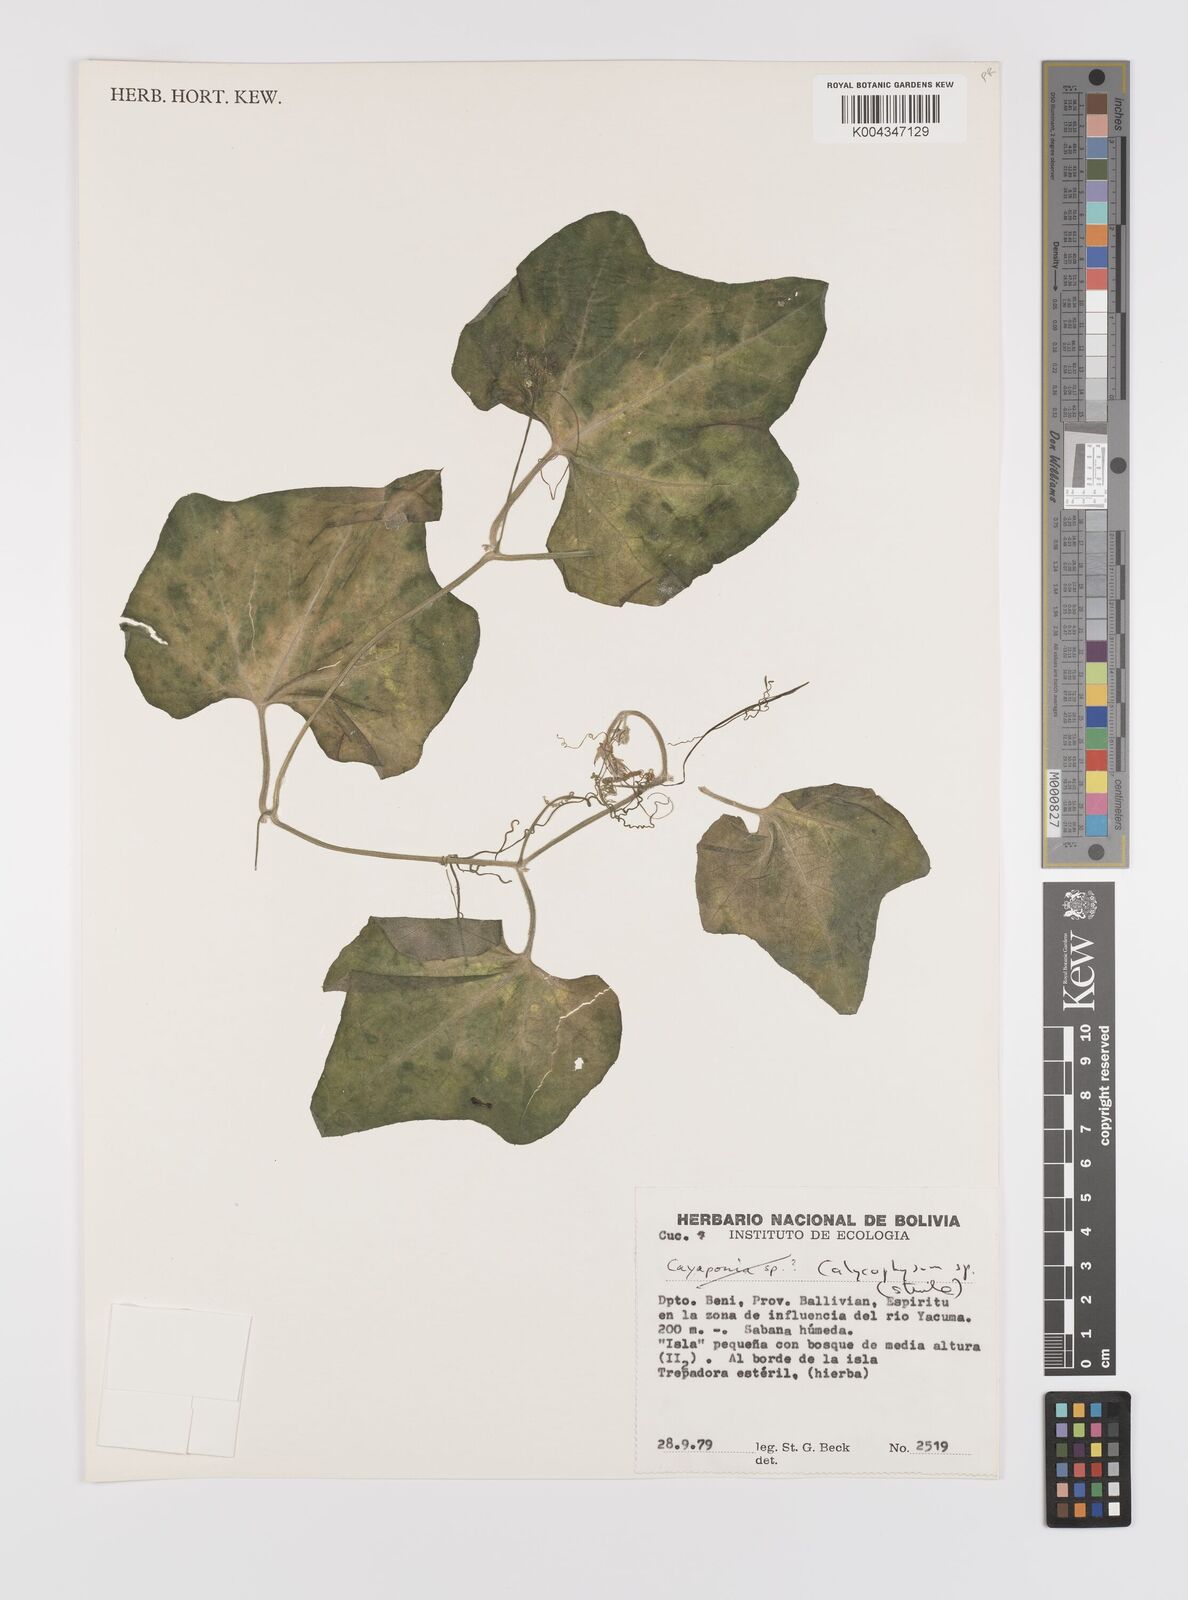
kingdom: Plantae
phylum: Tracheophyta
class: Magnoliopsida
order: Cucurbitales
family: Cucurbitaceae
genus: Calycophysum
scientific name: Calycophysum
